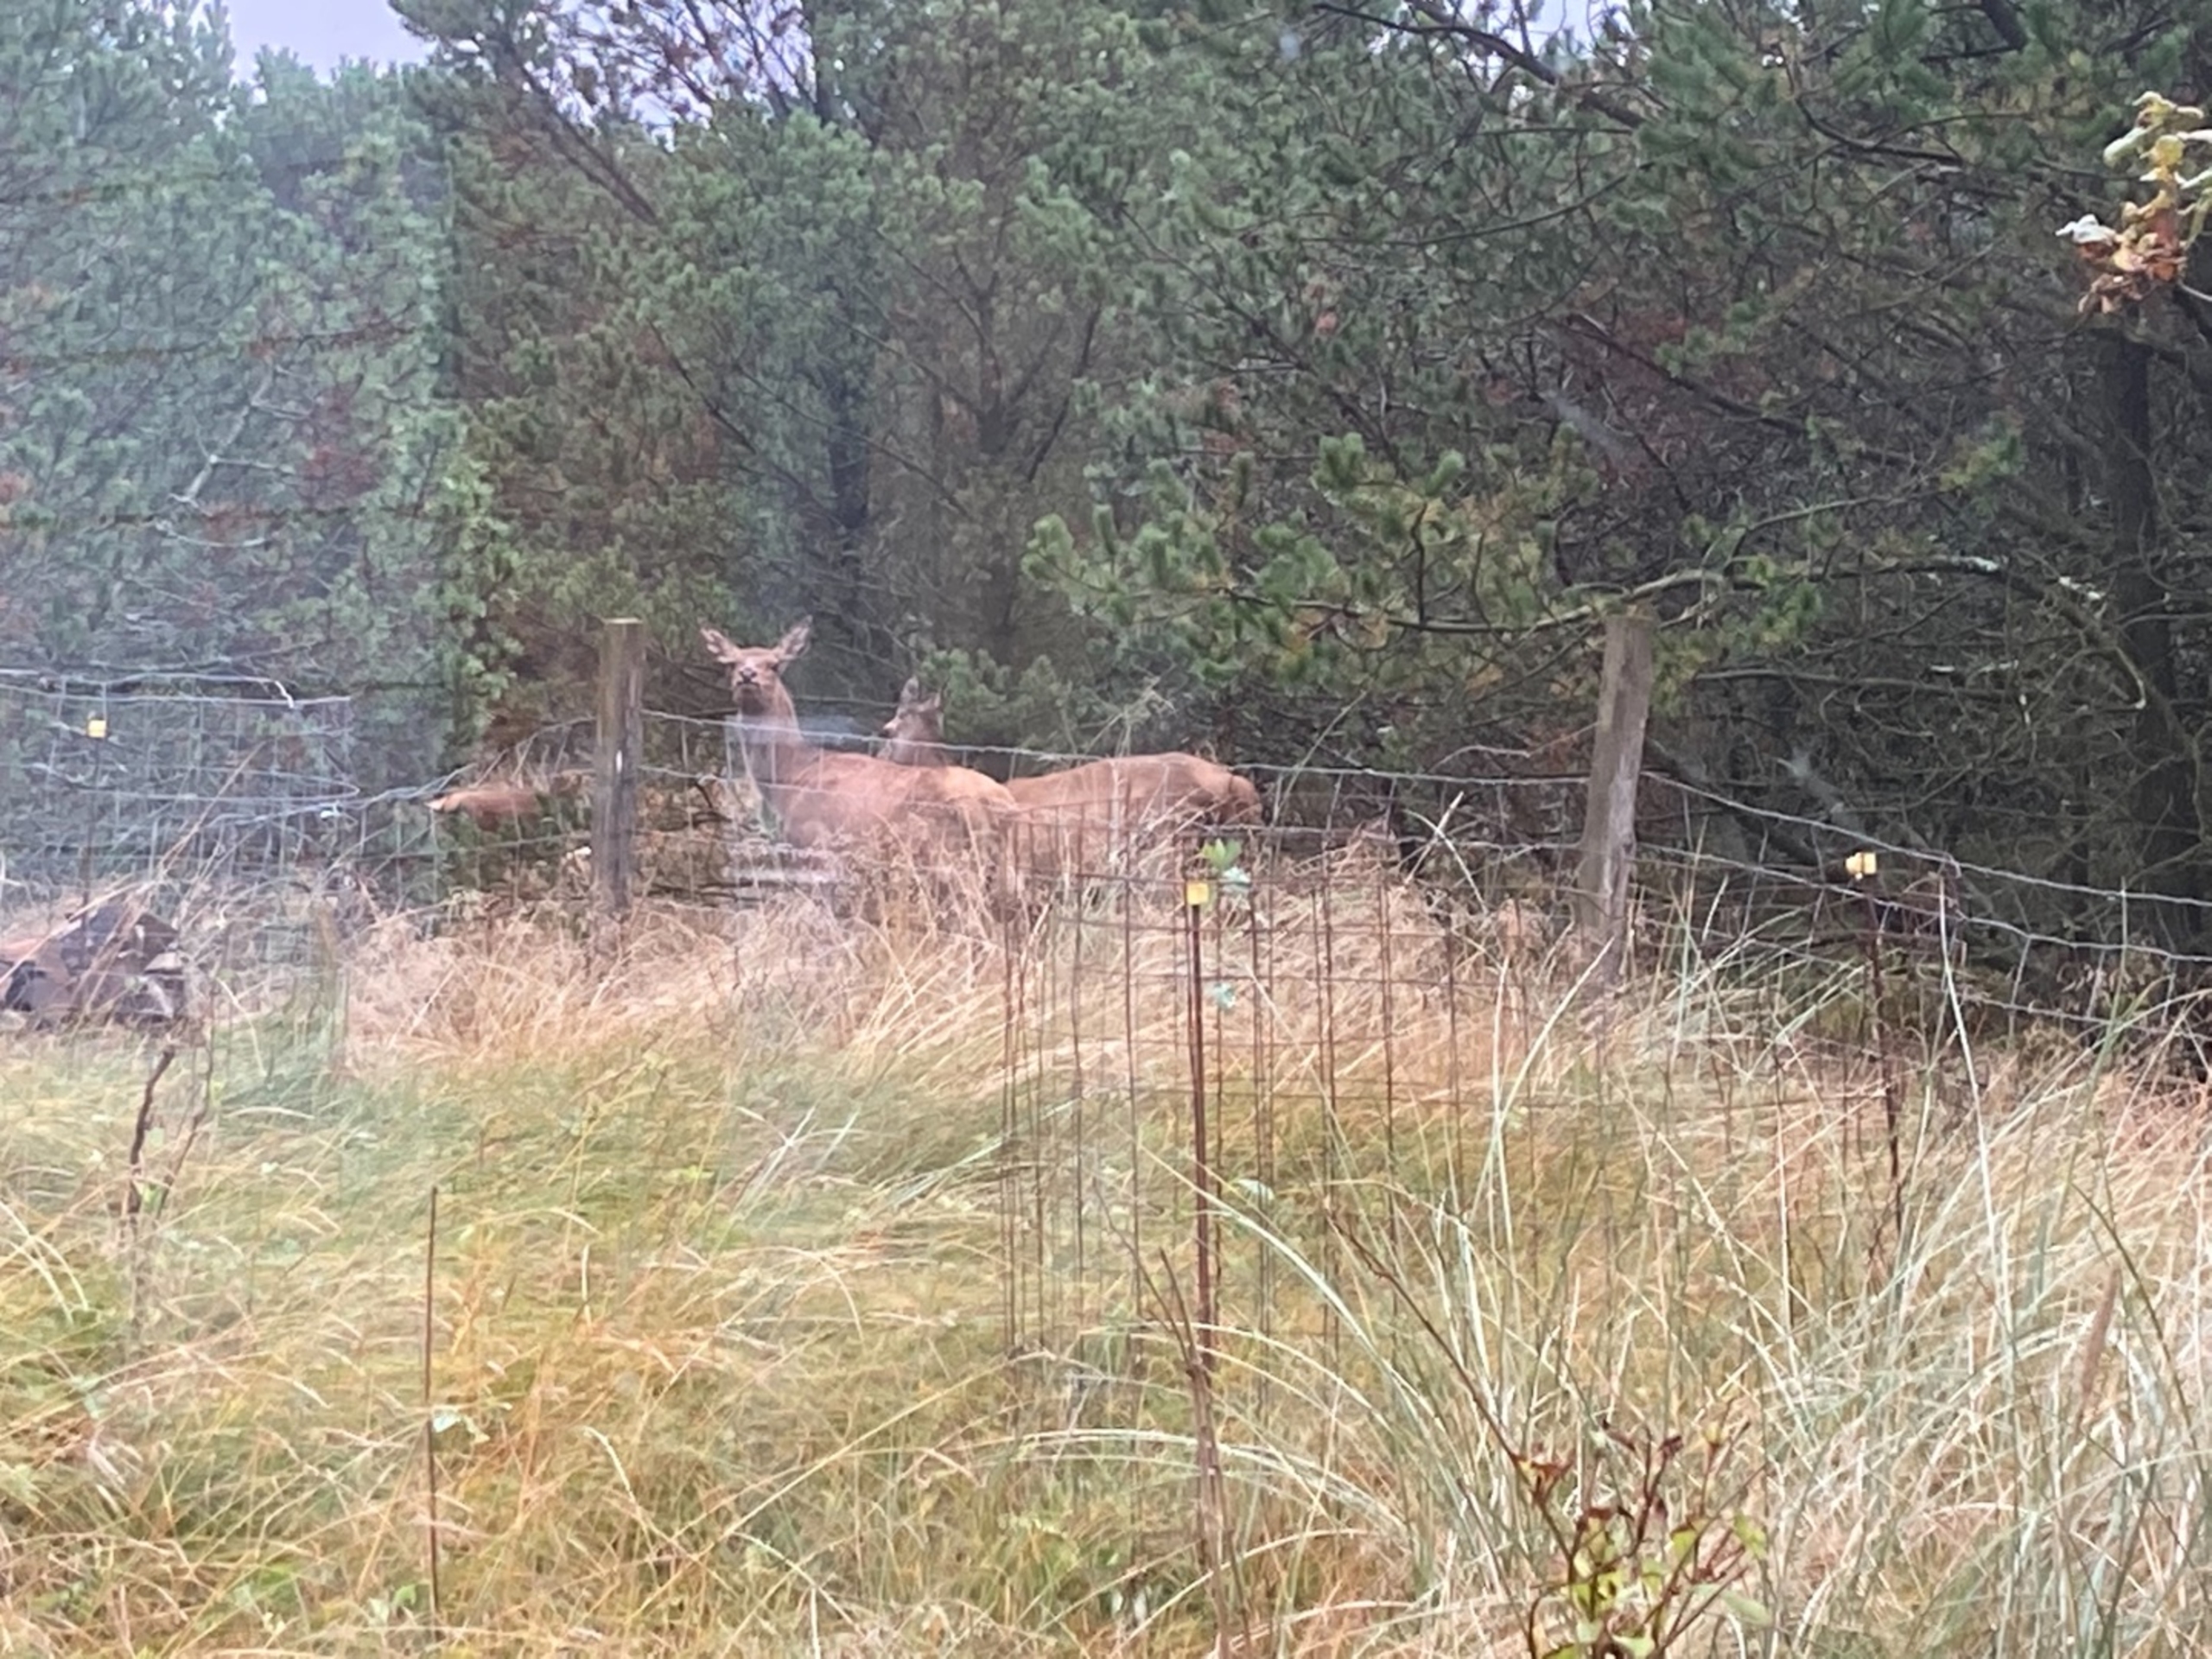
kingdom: Animalia
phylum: Chordata
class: Mammalia
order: Artiodactyla
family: Cervidae
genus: Cervus
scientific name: Cervus elaphus
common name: Krondyr
